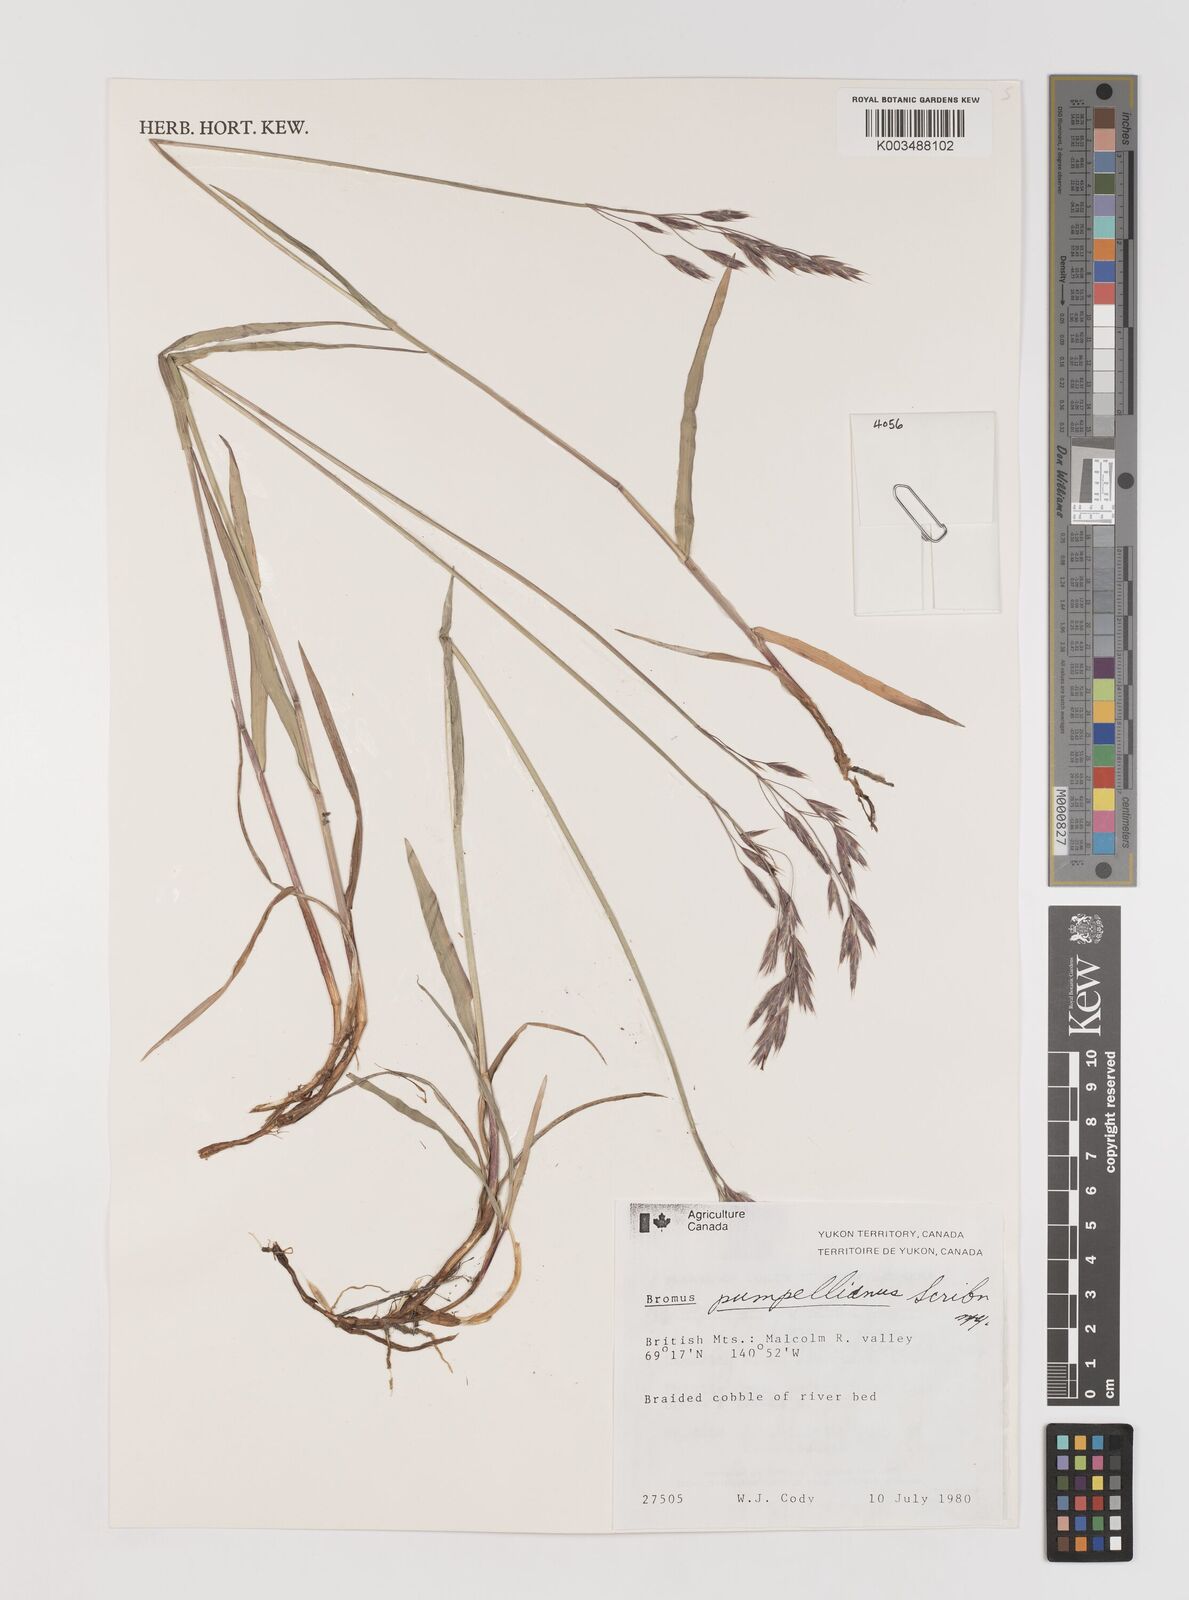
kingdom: Plantae
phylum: Tracheophyta
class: Liliopsida
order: Poales
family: Poaceae
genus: Bromus
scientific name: Bromus pumpellianus
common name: Pumpelly's brome
